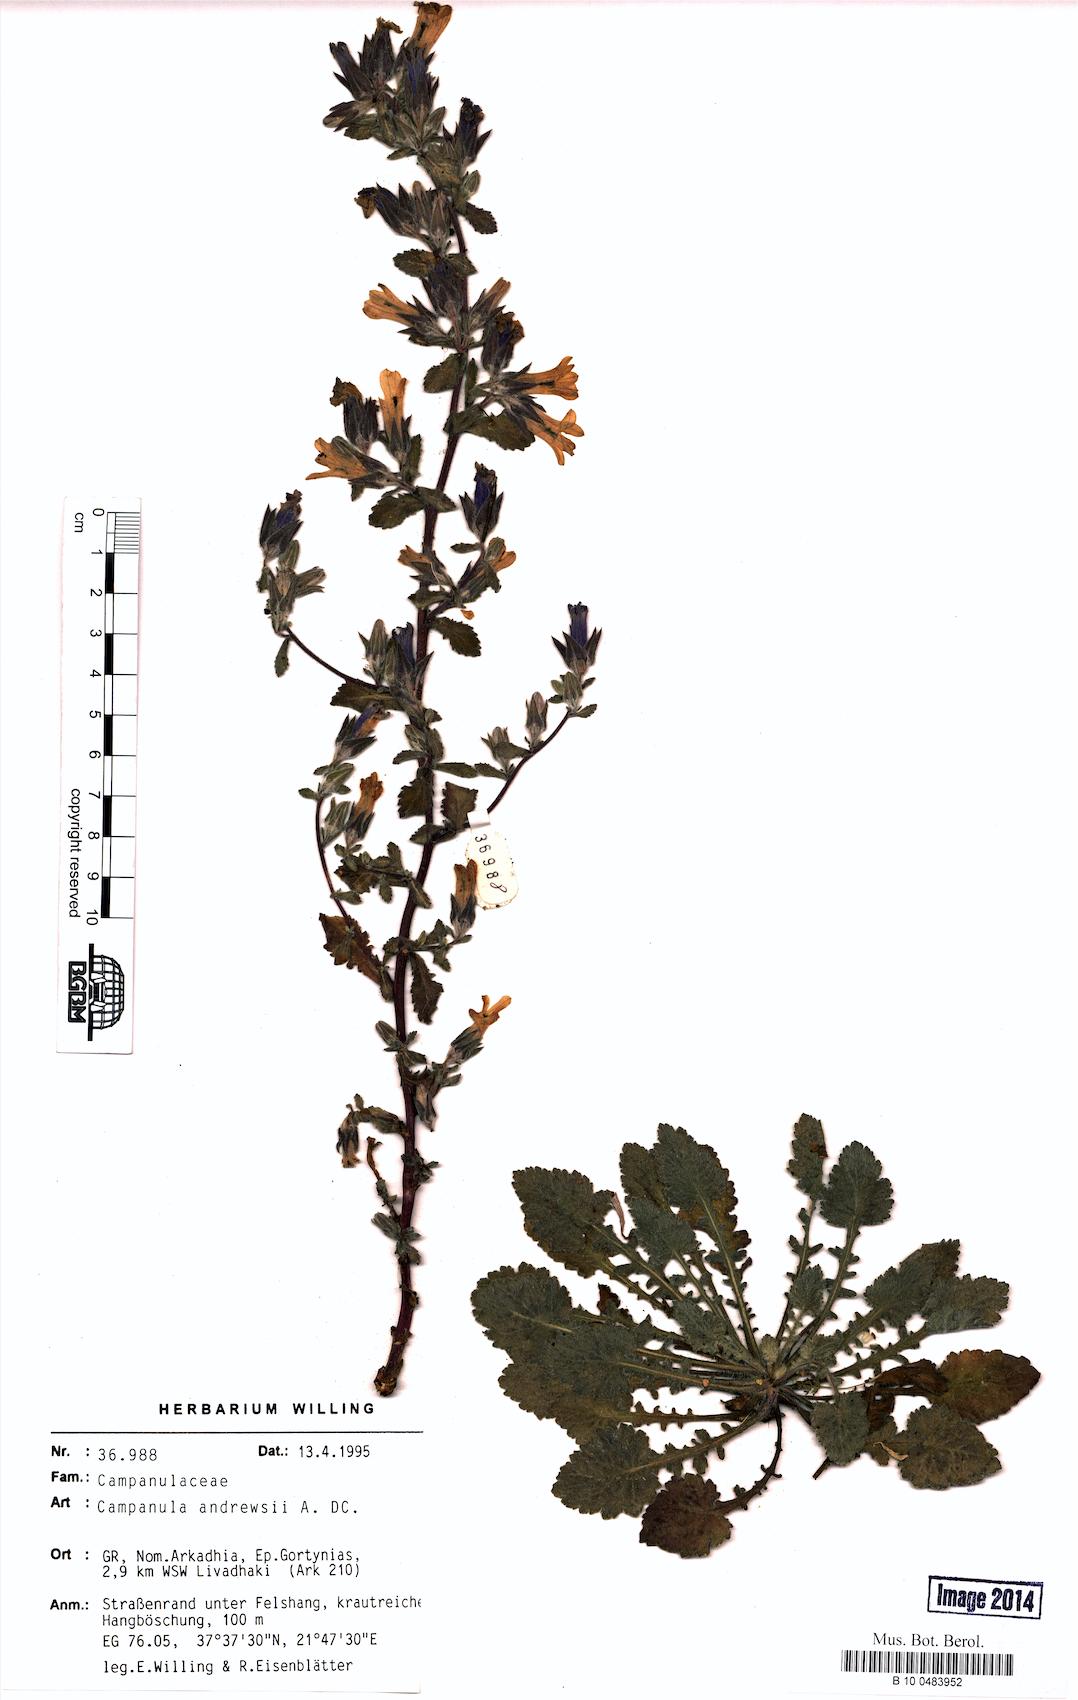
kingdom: Plantae
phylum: Tracheophyta
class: Magnoliopsida
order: Asterales
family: Campanulaceae
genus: Campanula
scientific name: Campanula andrewsii
